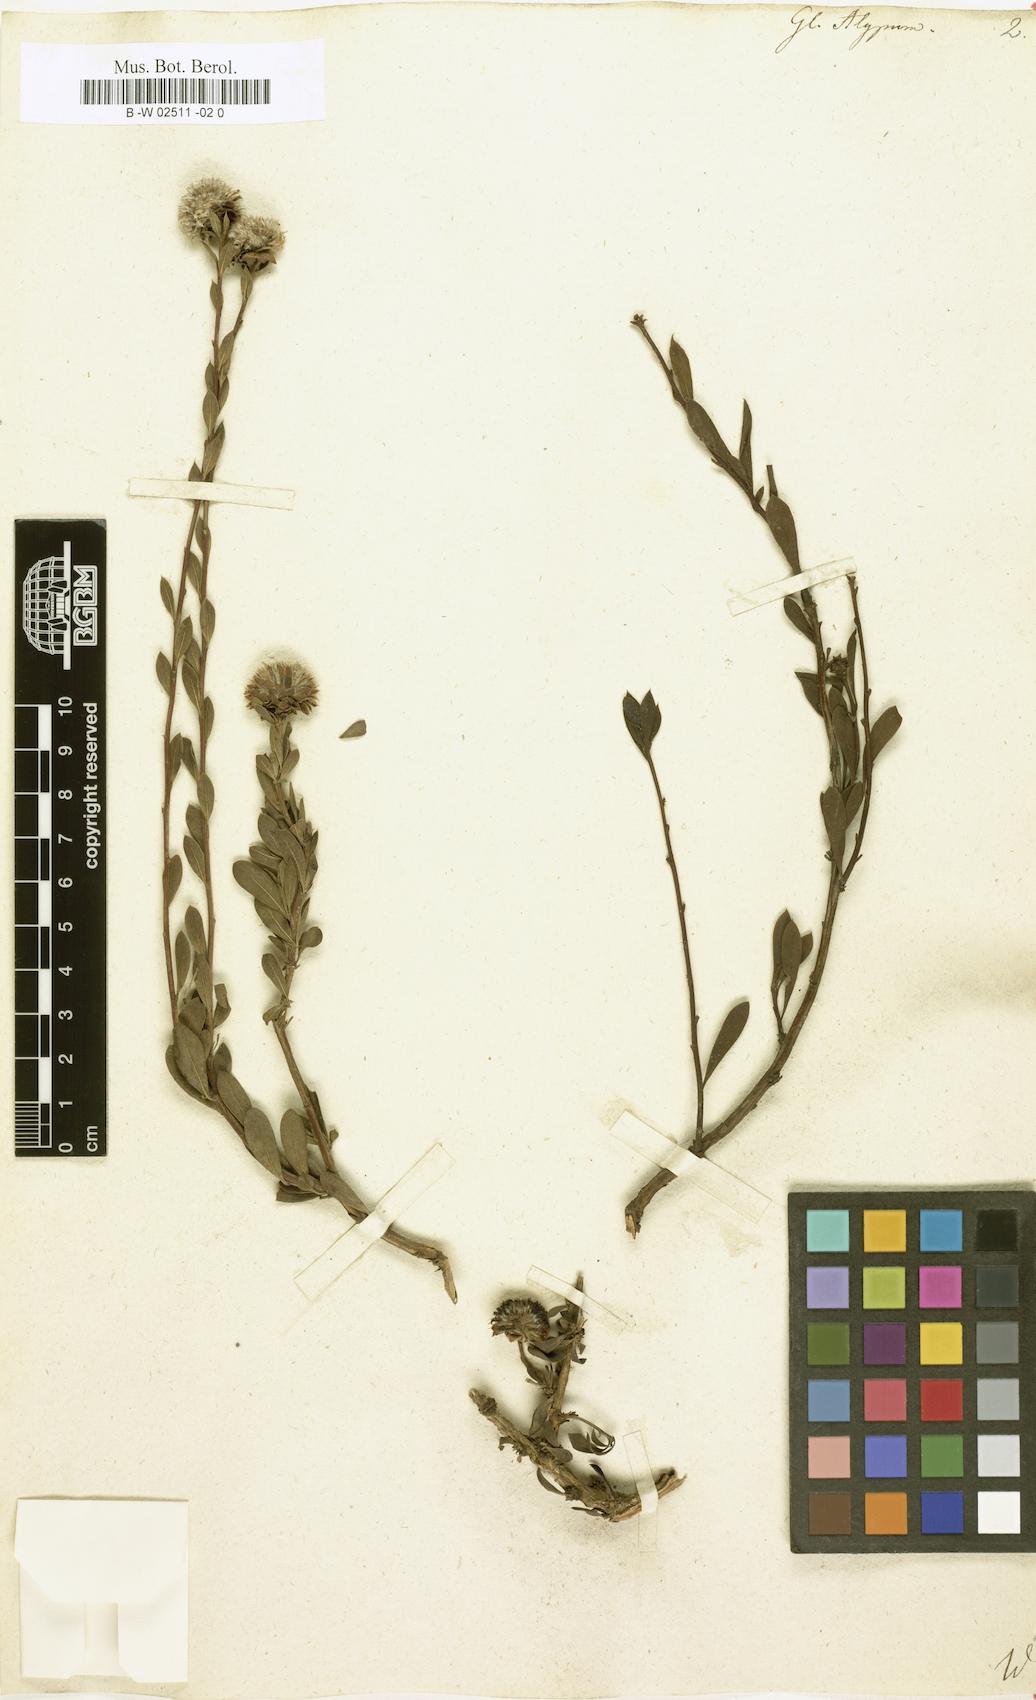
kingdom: Plantae
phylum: Tracheophyta
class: Magnoliopsida
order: Lamiales
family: Plantaginaceae
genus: Globularia
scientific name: Globularia alypum
